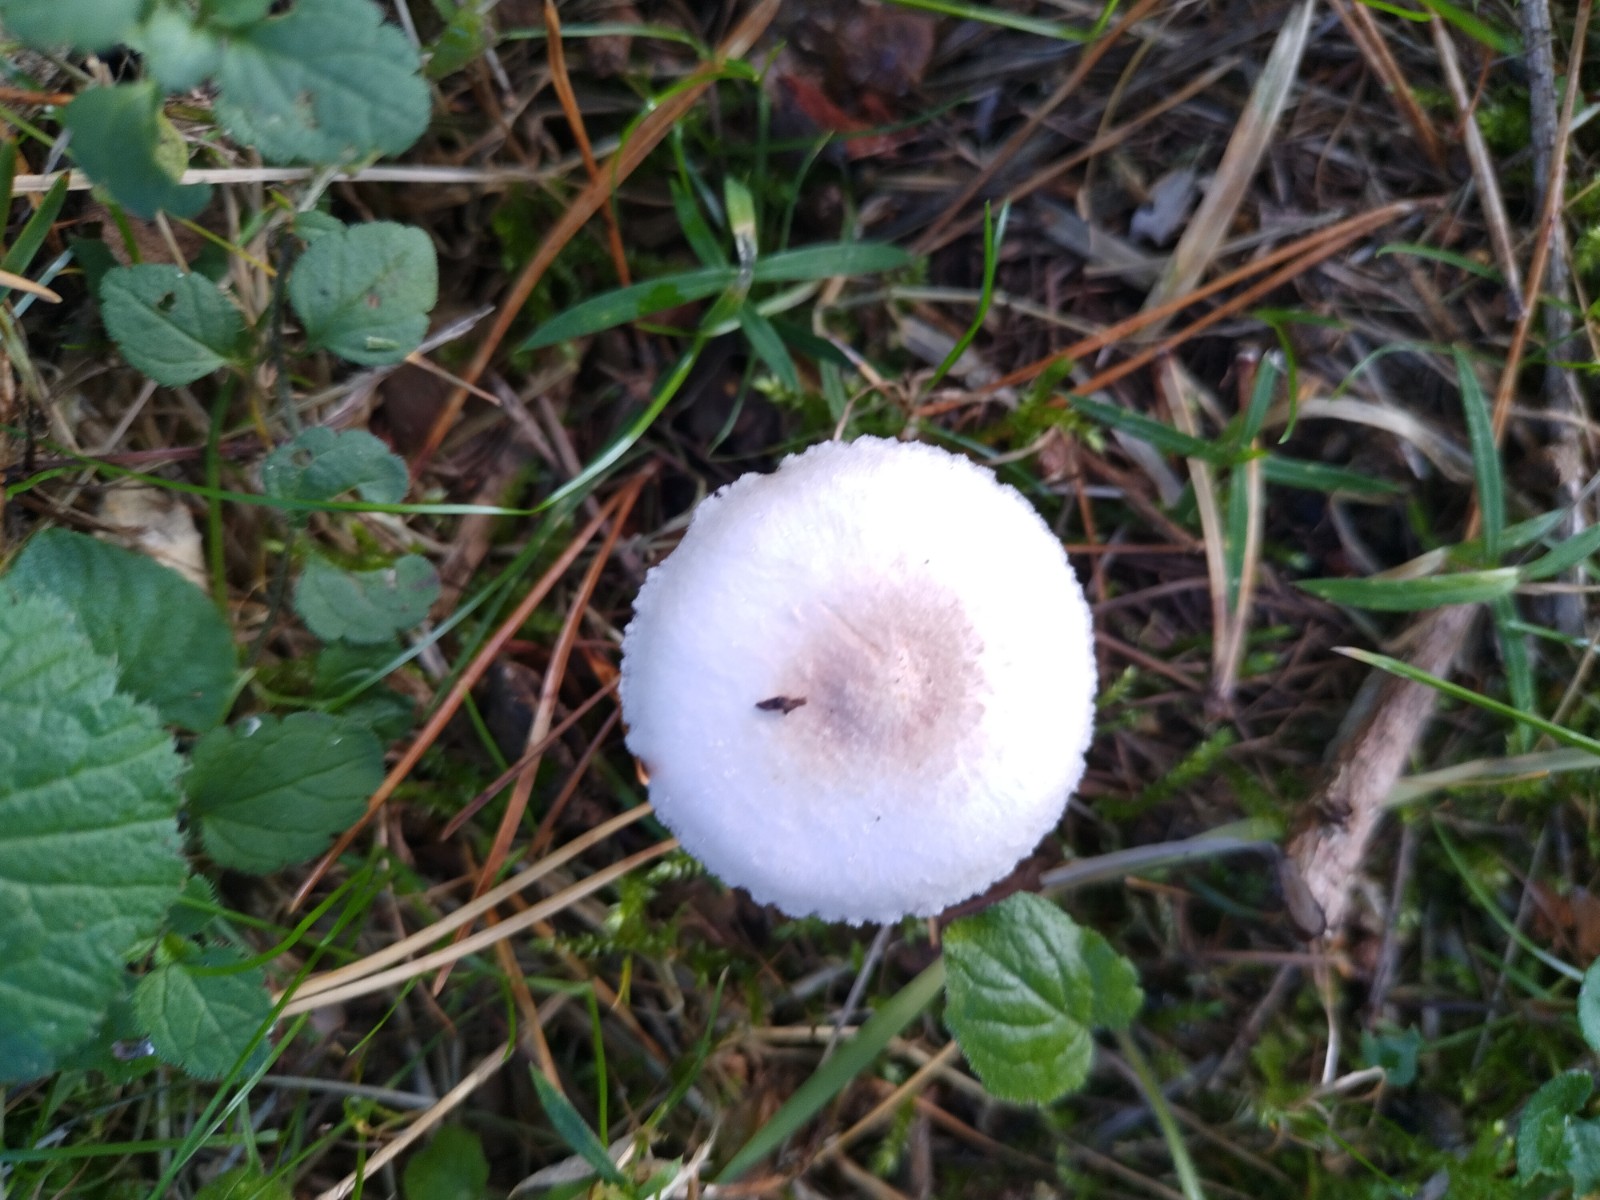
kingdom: Fungi
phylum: Basidiomycota
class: Agaricomycetes
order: Agaricales
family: Agaricaceae
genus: Agaricus
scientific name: Agaricus
